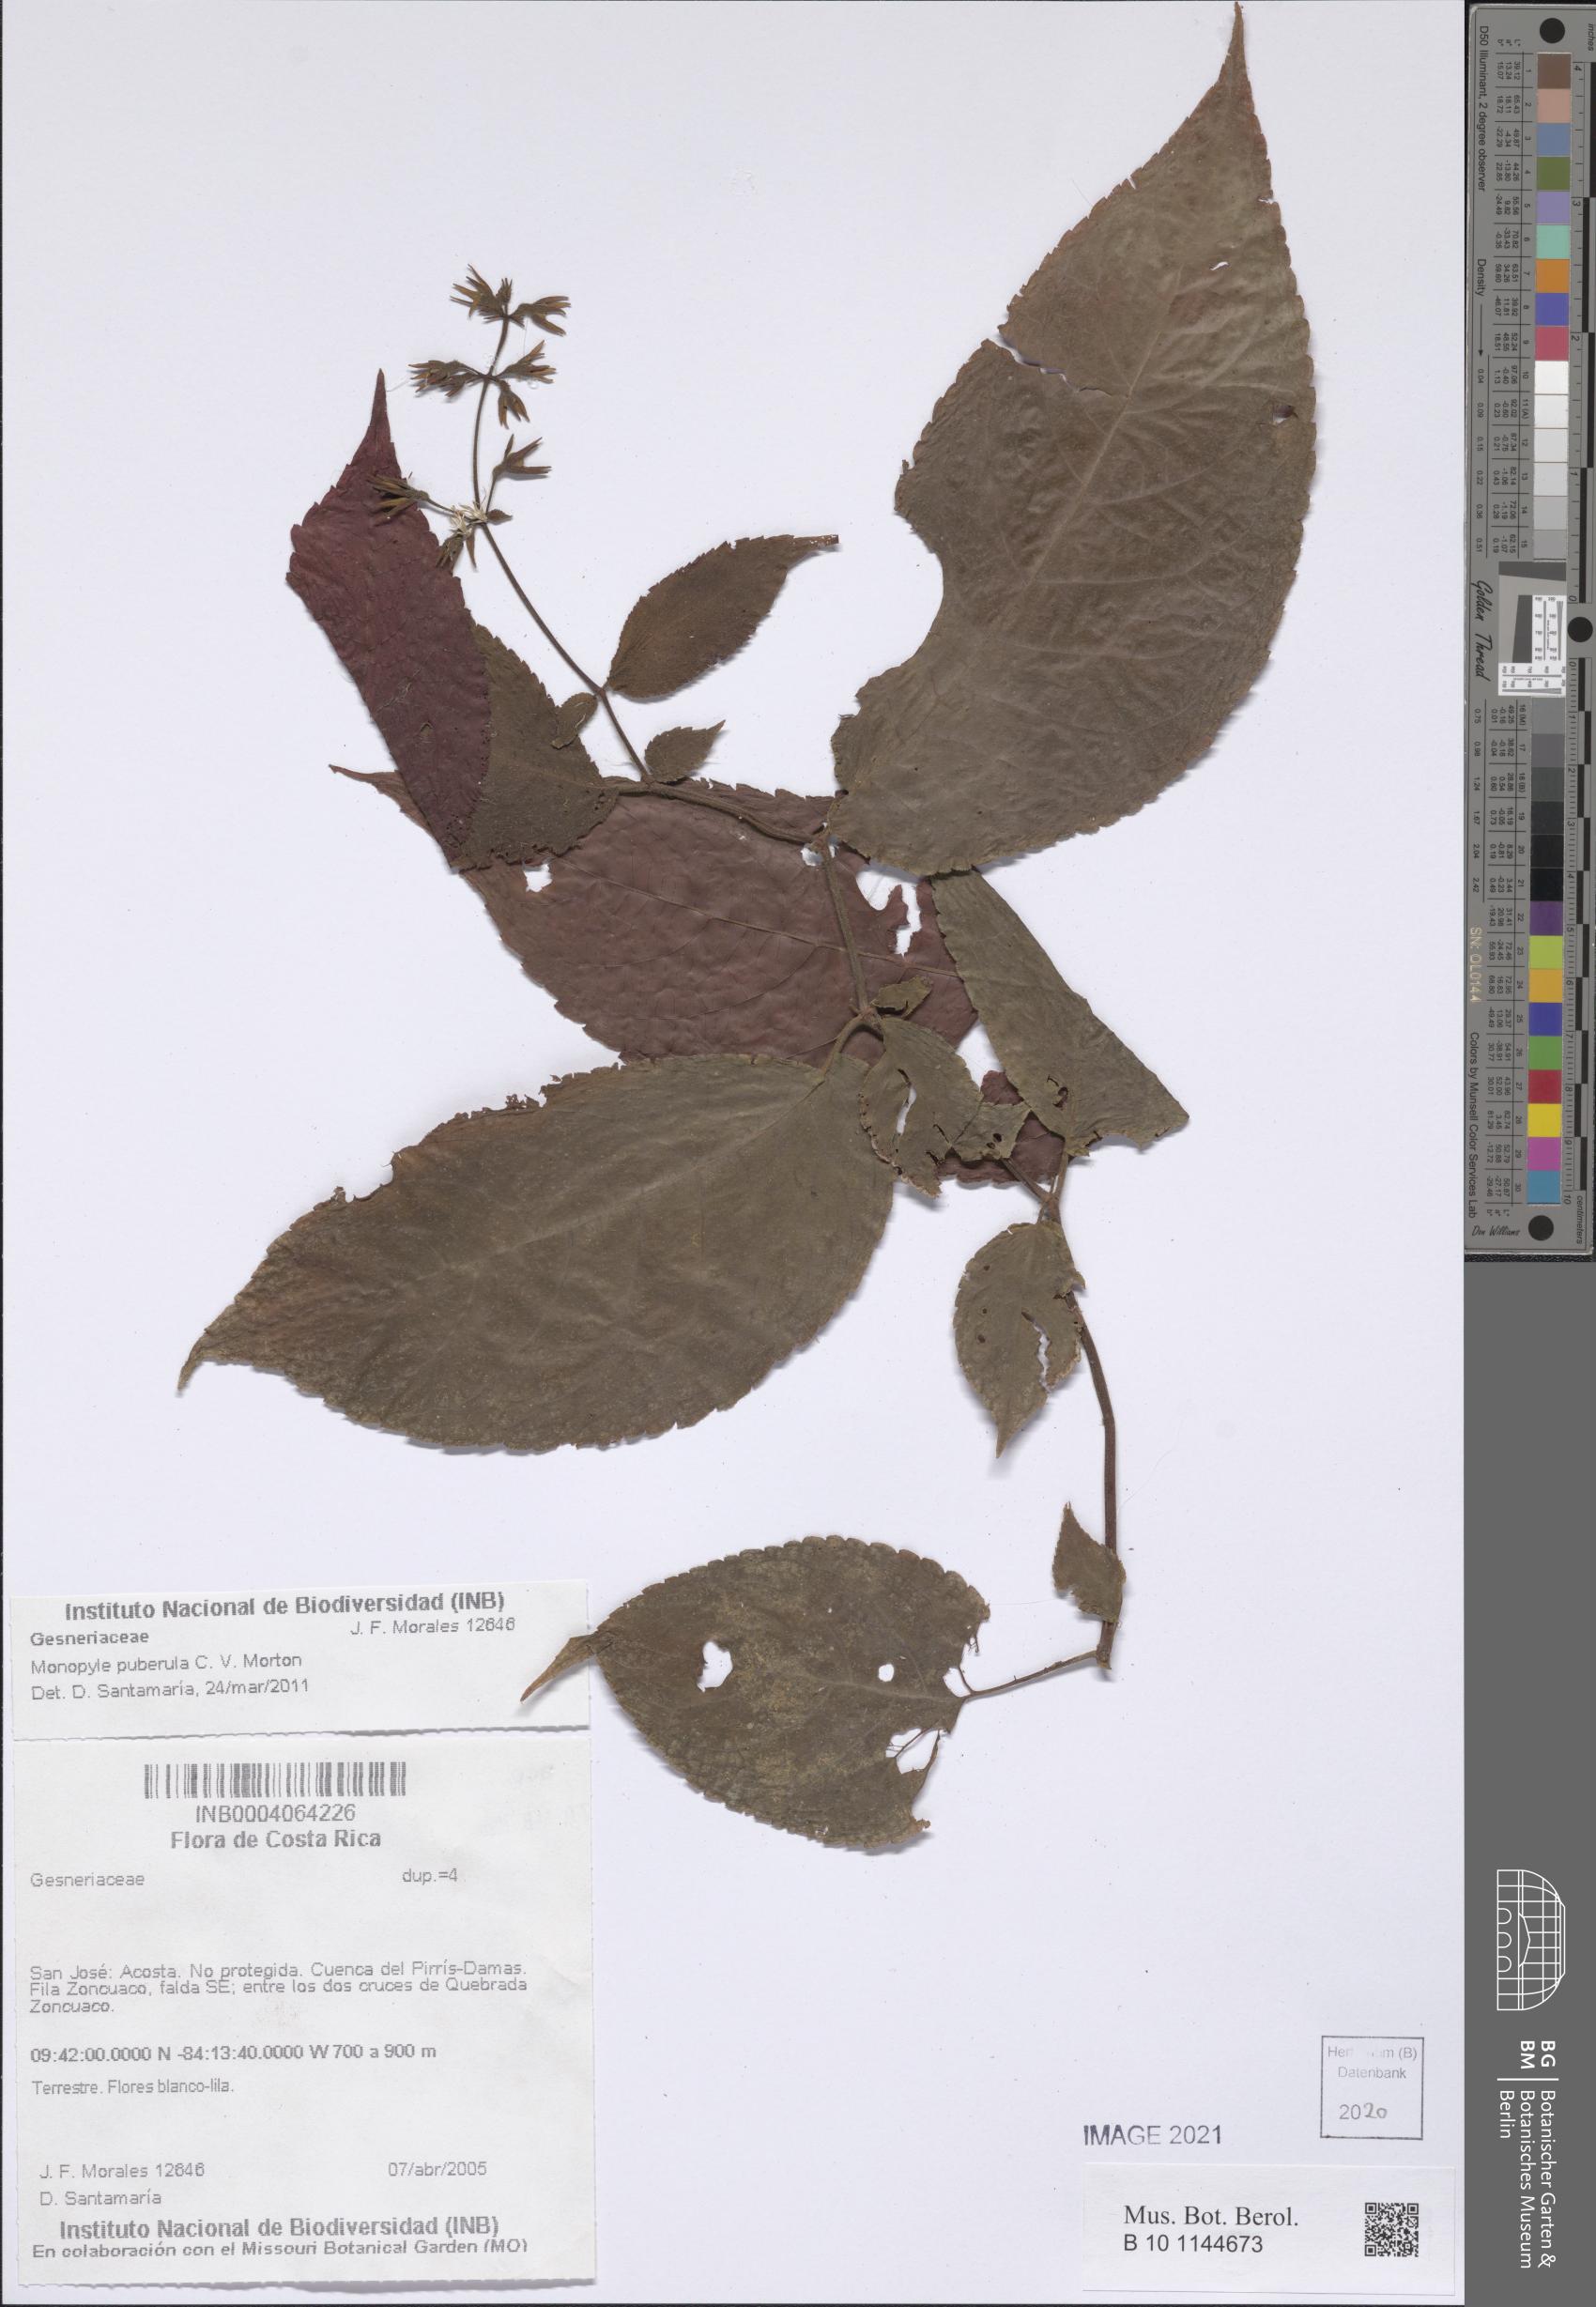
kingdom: Plantae
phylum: Tracheophyta
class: Magnoliopsida
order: Lamiales
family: Gesneriaceae
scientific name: Gesneriaceae
